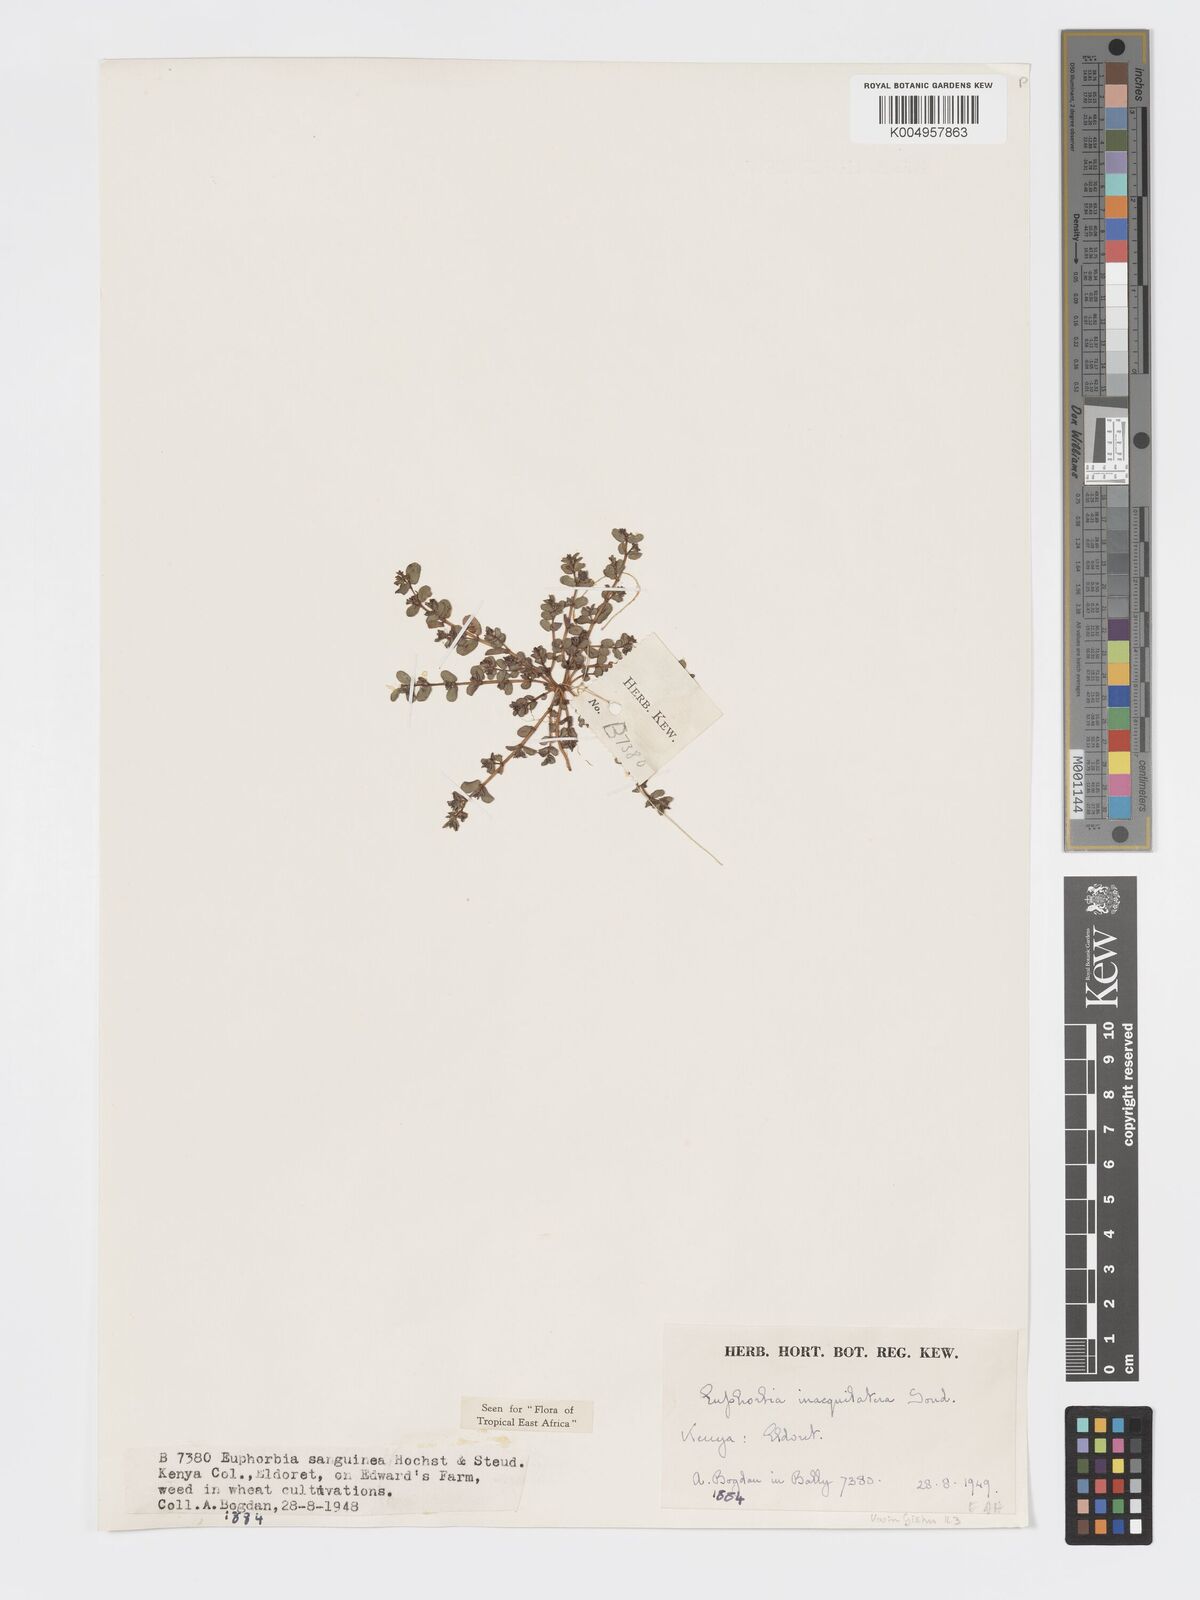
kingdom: Plantae
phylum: Tracheophyta
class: Magnoliopsida
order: Malpighiales
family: Euphorbiaceae
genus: Euphorbia
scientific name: Euphorbia inaequilatera
